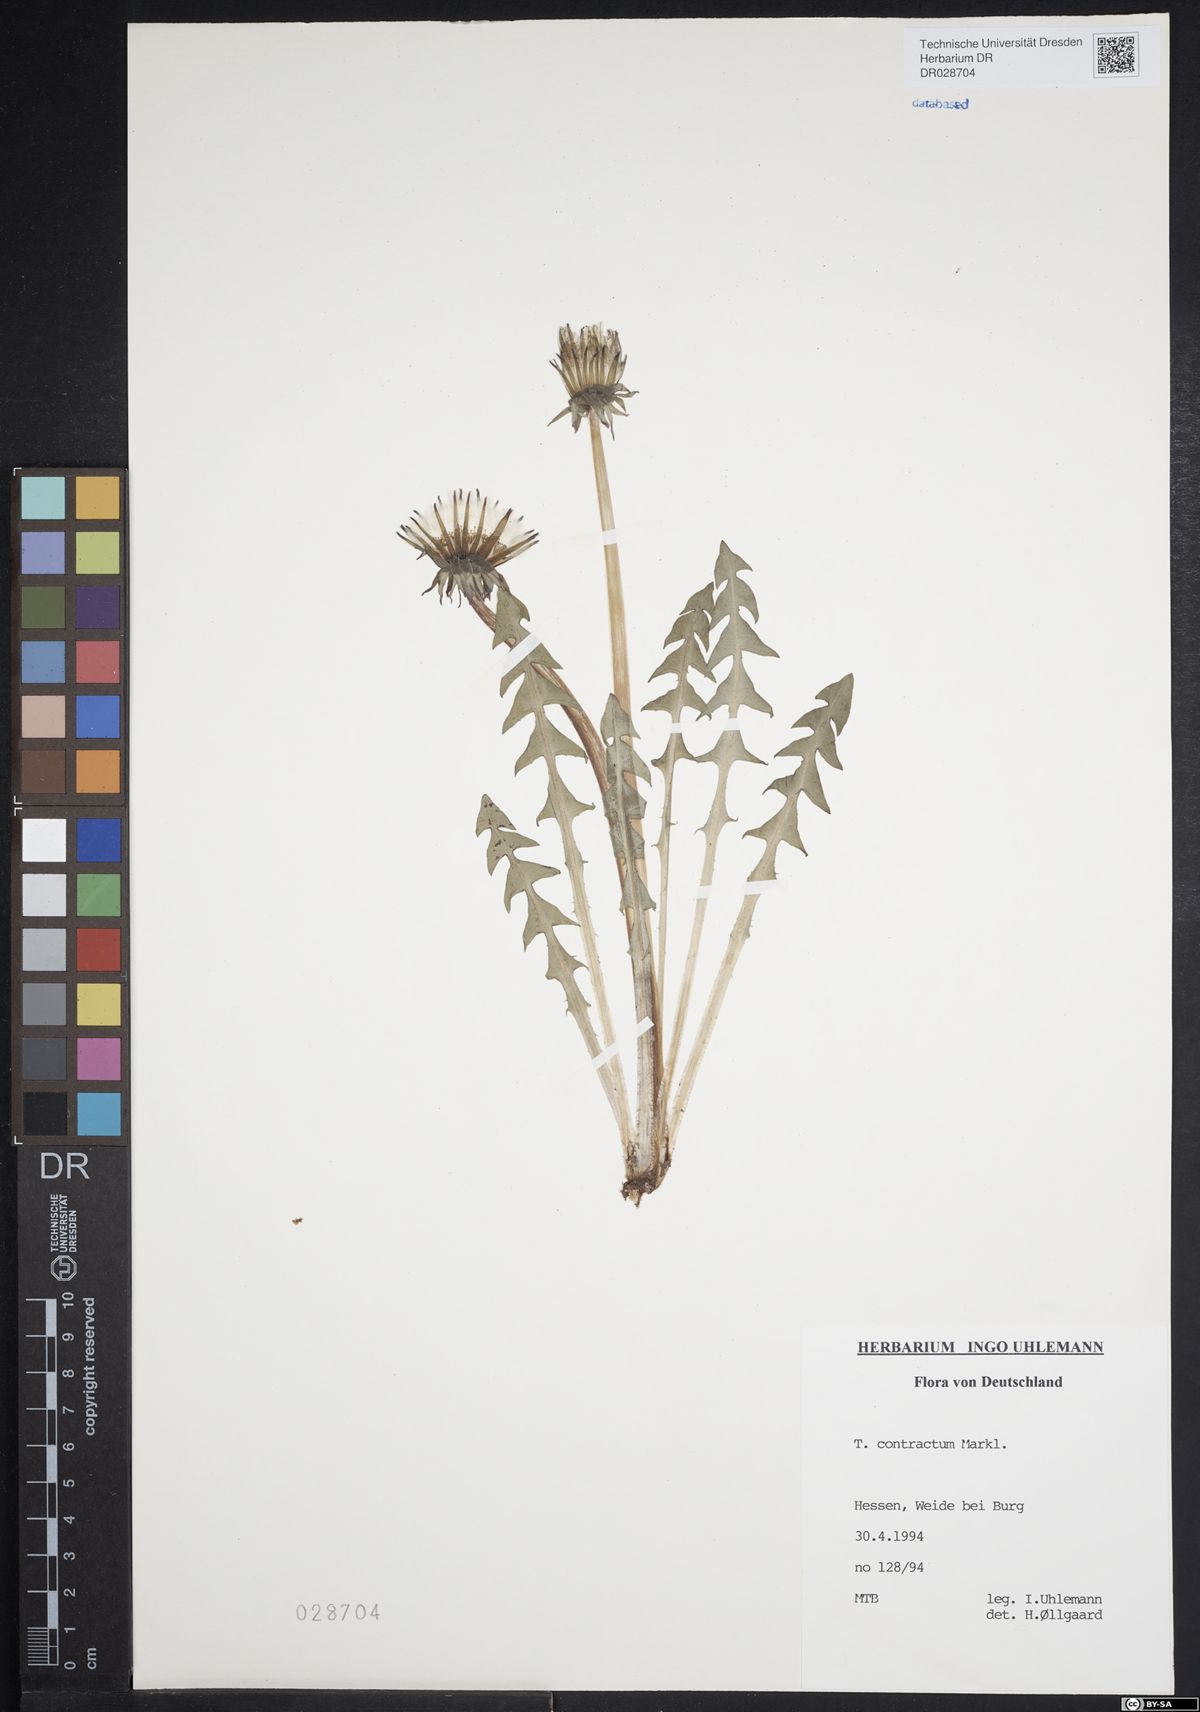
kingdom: Plantae
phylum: Tracheophyta
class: Magnoliopsida
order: Asterales
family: Asteraceae
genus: Taraxacum
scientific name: Taraxacum contractum
